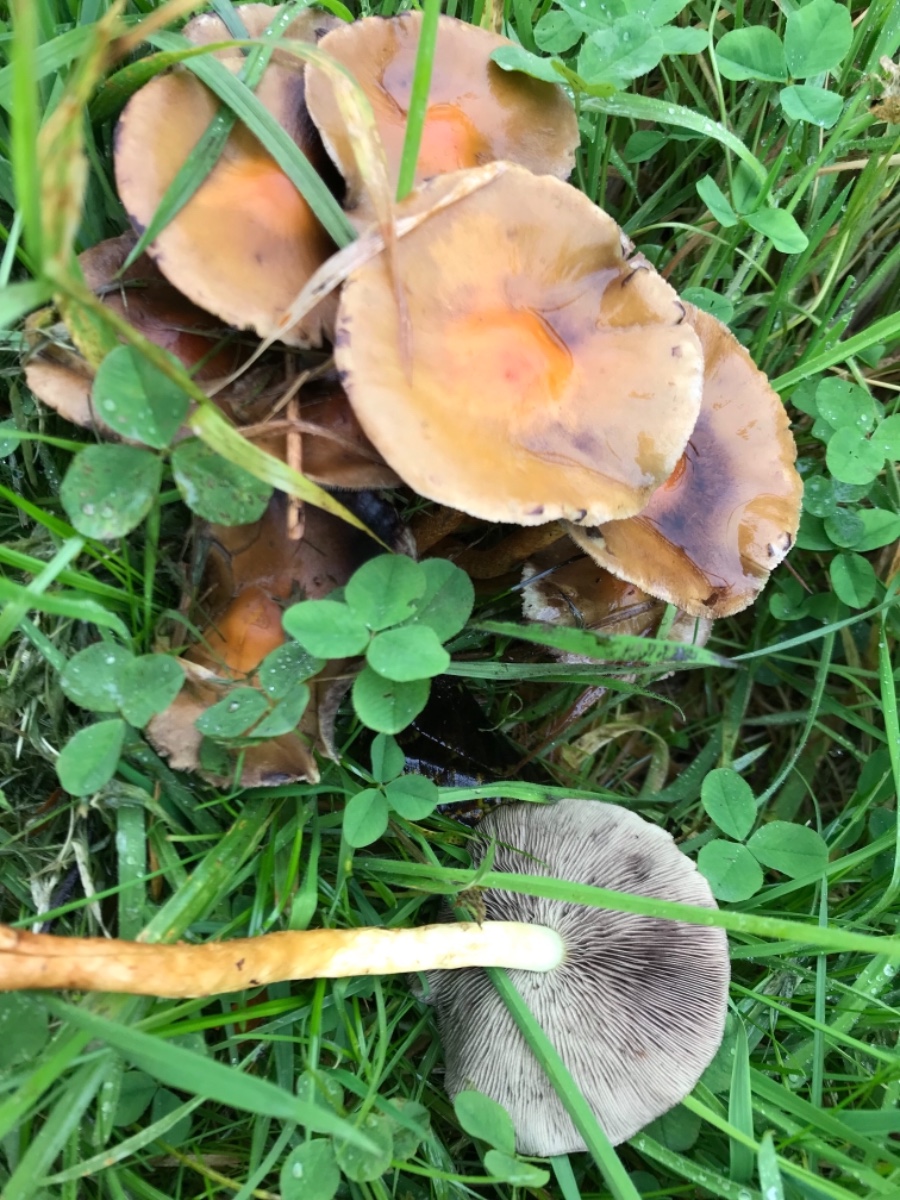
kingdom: Fungi
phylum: Basidiomycota
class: Agaricomycetes
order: Agaricales
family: Strophariaceae
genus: Hypholoma
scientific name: Hypholoma fasciculare
